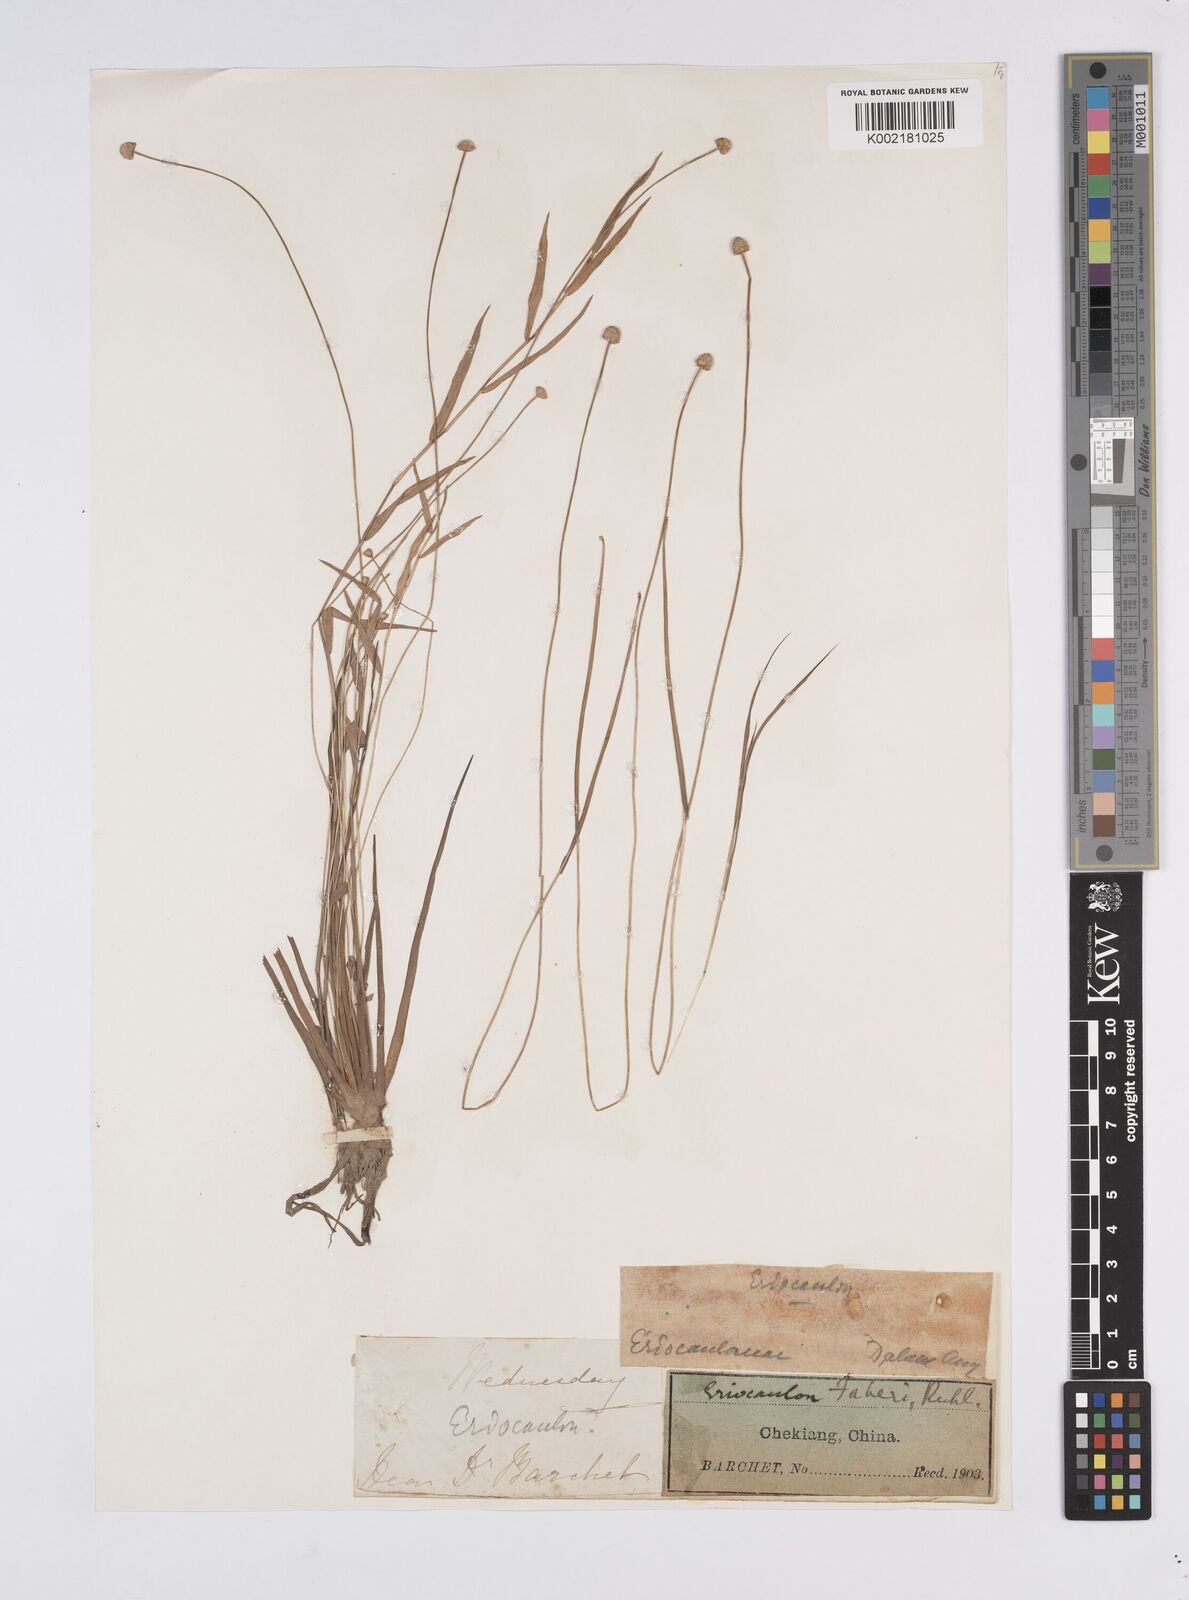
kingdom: Plantae
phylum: Tracheophyta
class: Liliopsida
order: Poales
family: Eriocaulaceae
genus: Eriocaulon
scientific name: Eriocaulon faberi
